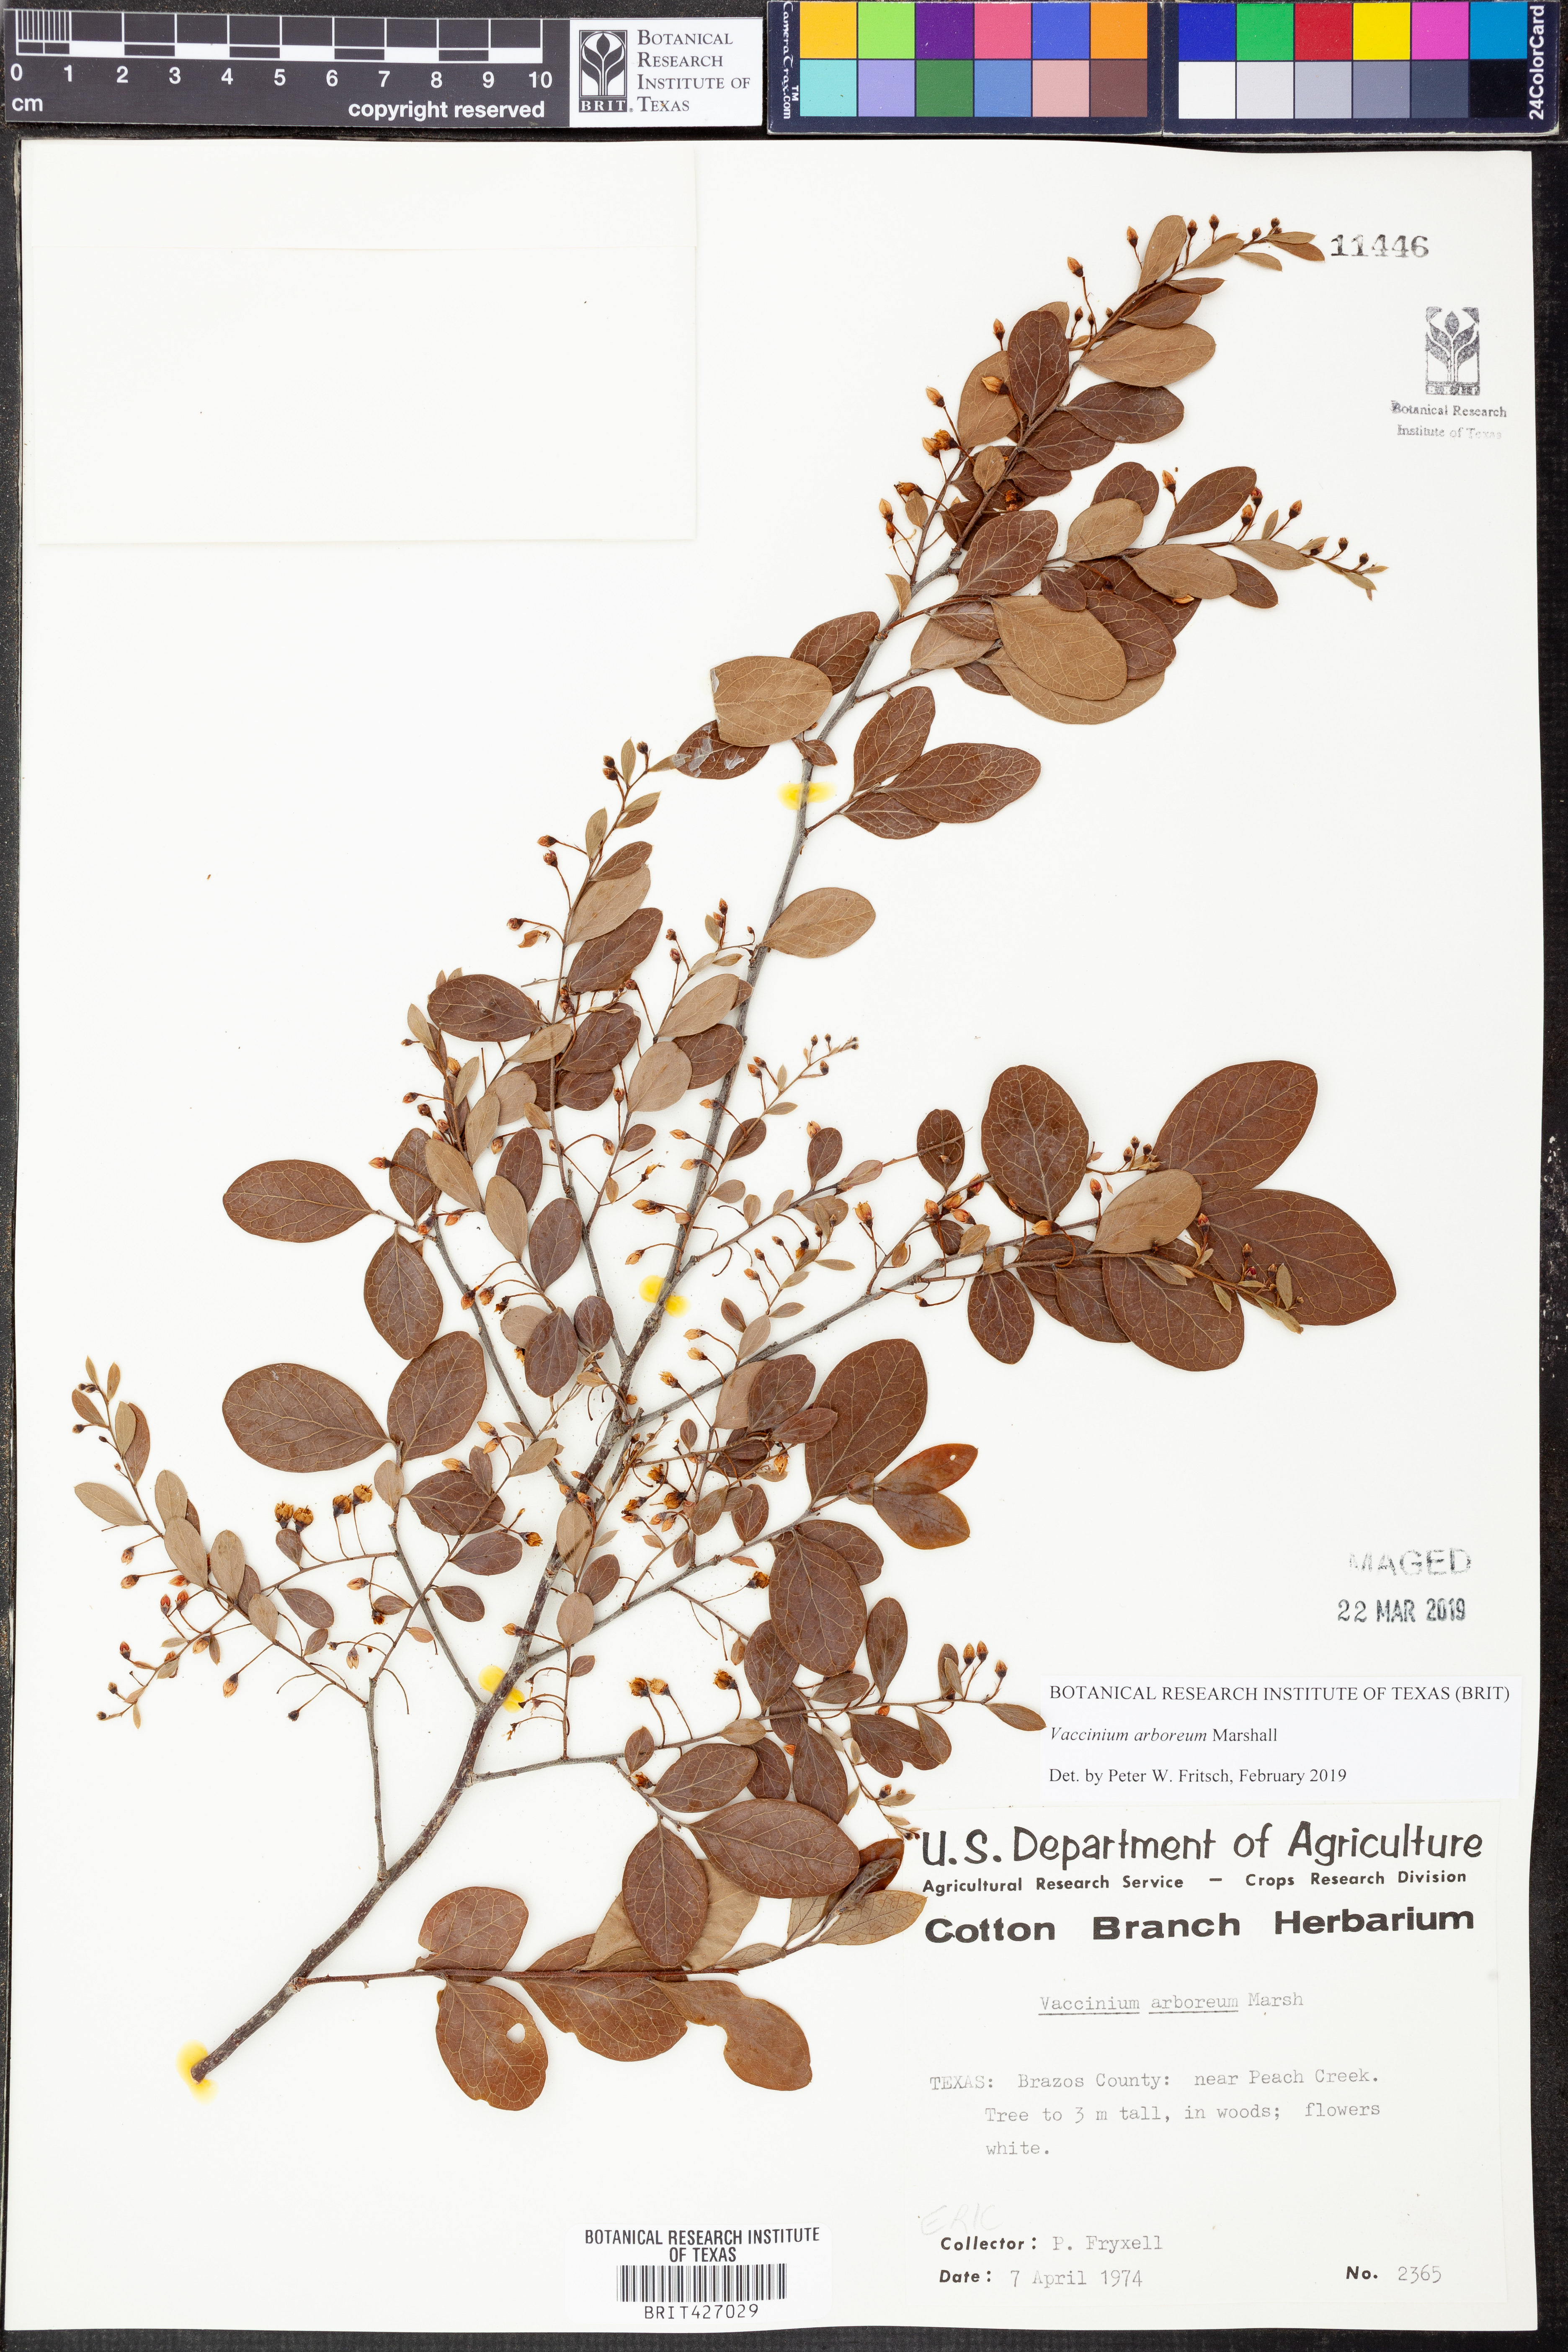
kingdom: Plantae
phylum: Tracheophyta
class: Magnoliopsida
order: Ericales
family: Ericaceae
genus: Vaccinium
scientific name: Vaccinium arboreum
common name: Farkleberry
